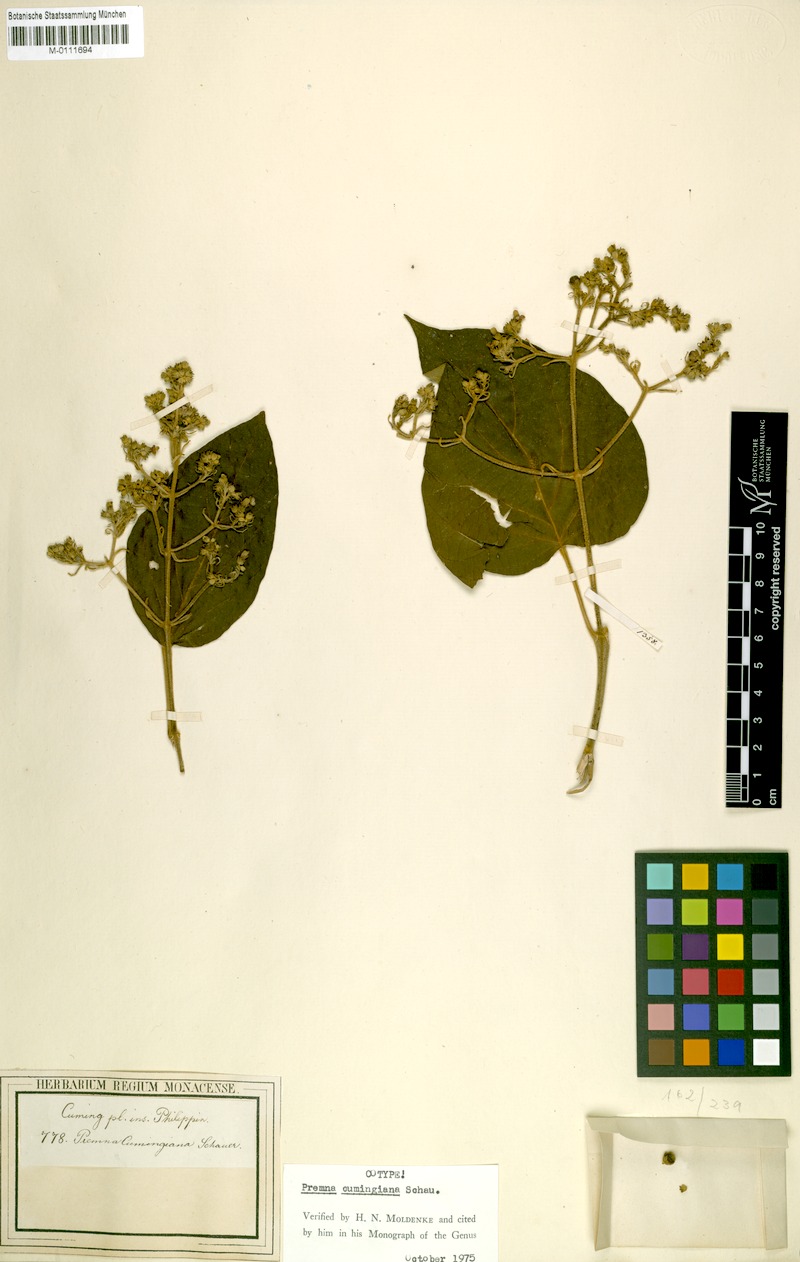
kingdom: Plantae
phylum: Tracheophyta
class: Magnoliopsida
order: Lamiales
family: Lamiaceae
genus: Premna
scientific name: Premna tomentosa
